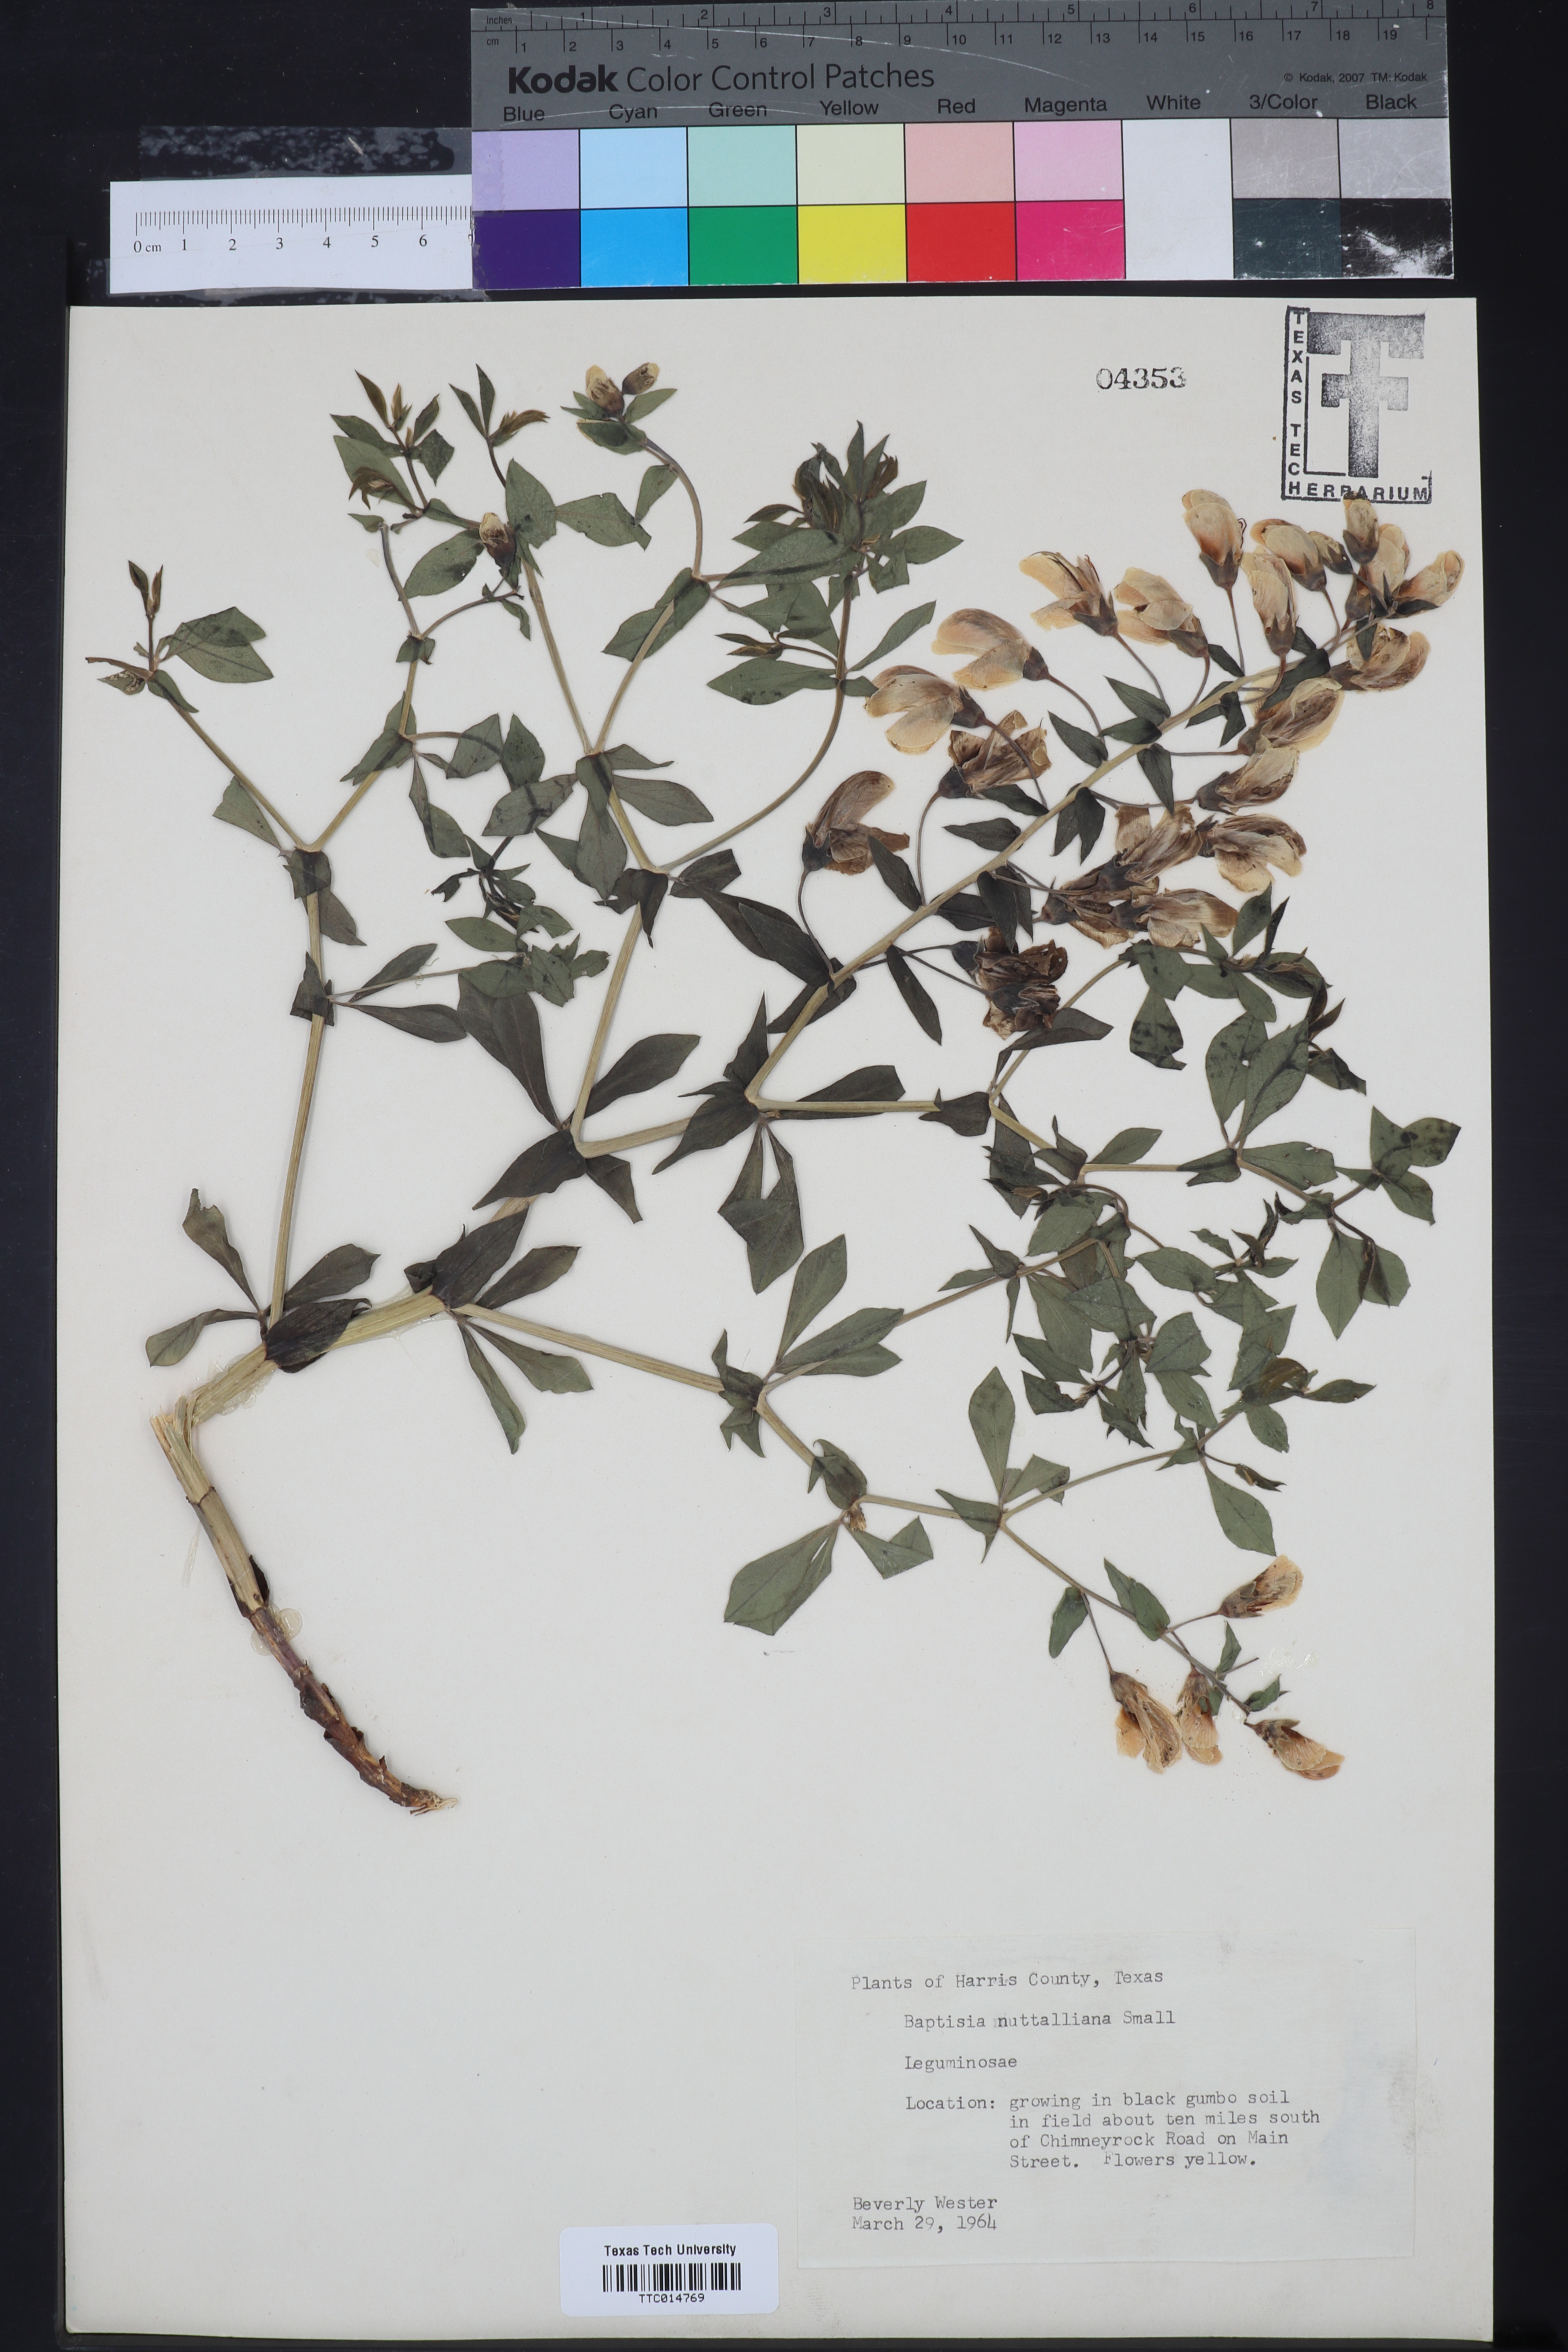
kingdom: Plantae
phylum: Tracheophyta
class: Magnoliopsida
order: Fabales
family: Fabaceae
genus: Baptisia
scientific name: Baptisia nuttalliana
